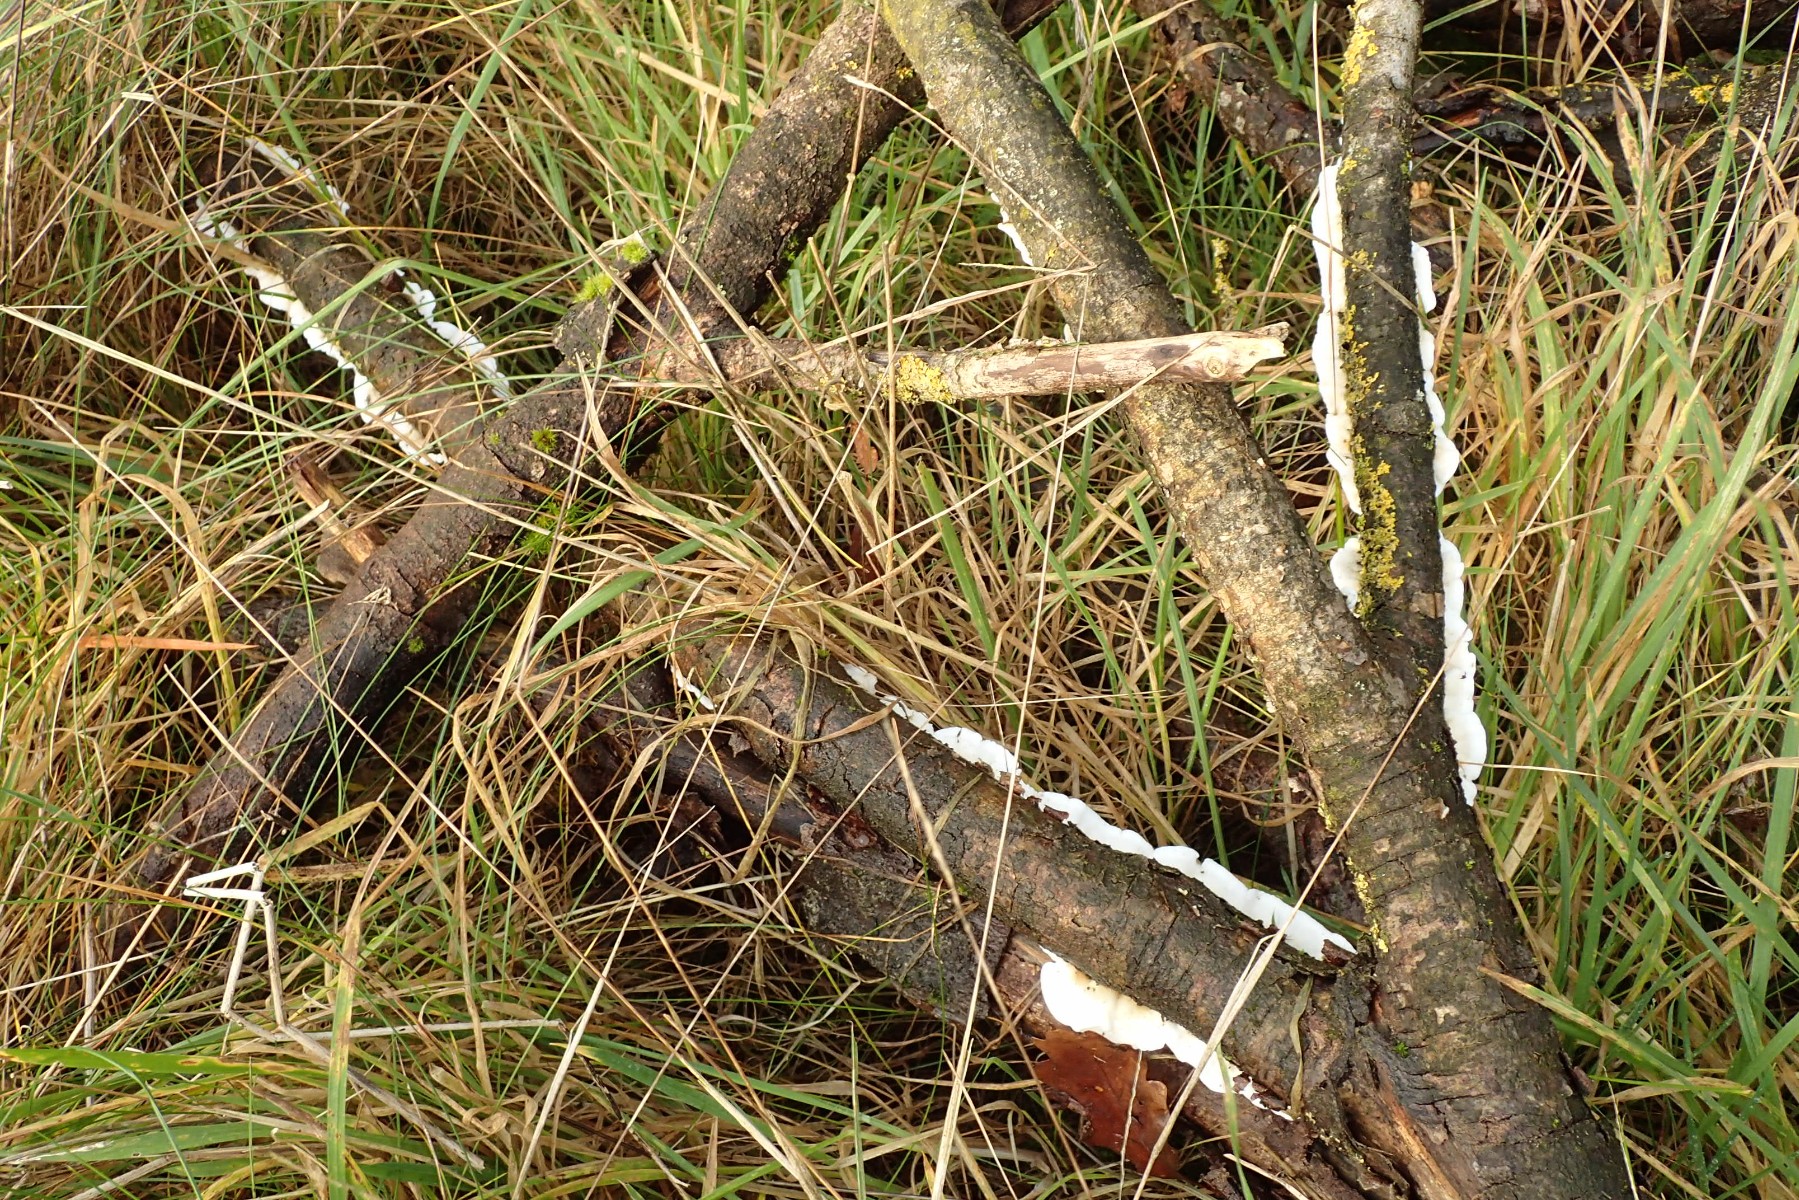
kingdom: Fungi
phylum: Basidiomycota
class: Agaricomycetes
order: Polyporales
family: Irpicaceae
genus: Byssomerulius
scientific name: Byssomerulius corium
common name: læder-åresvamp
